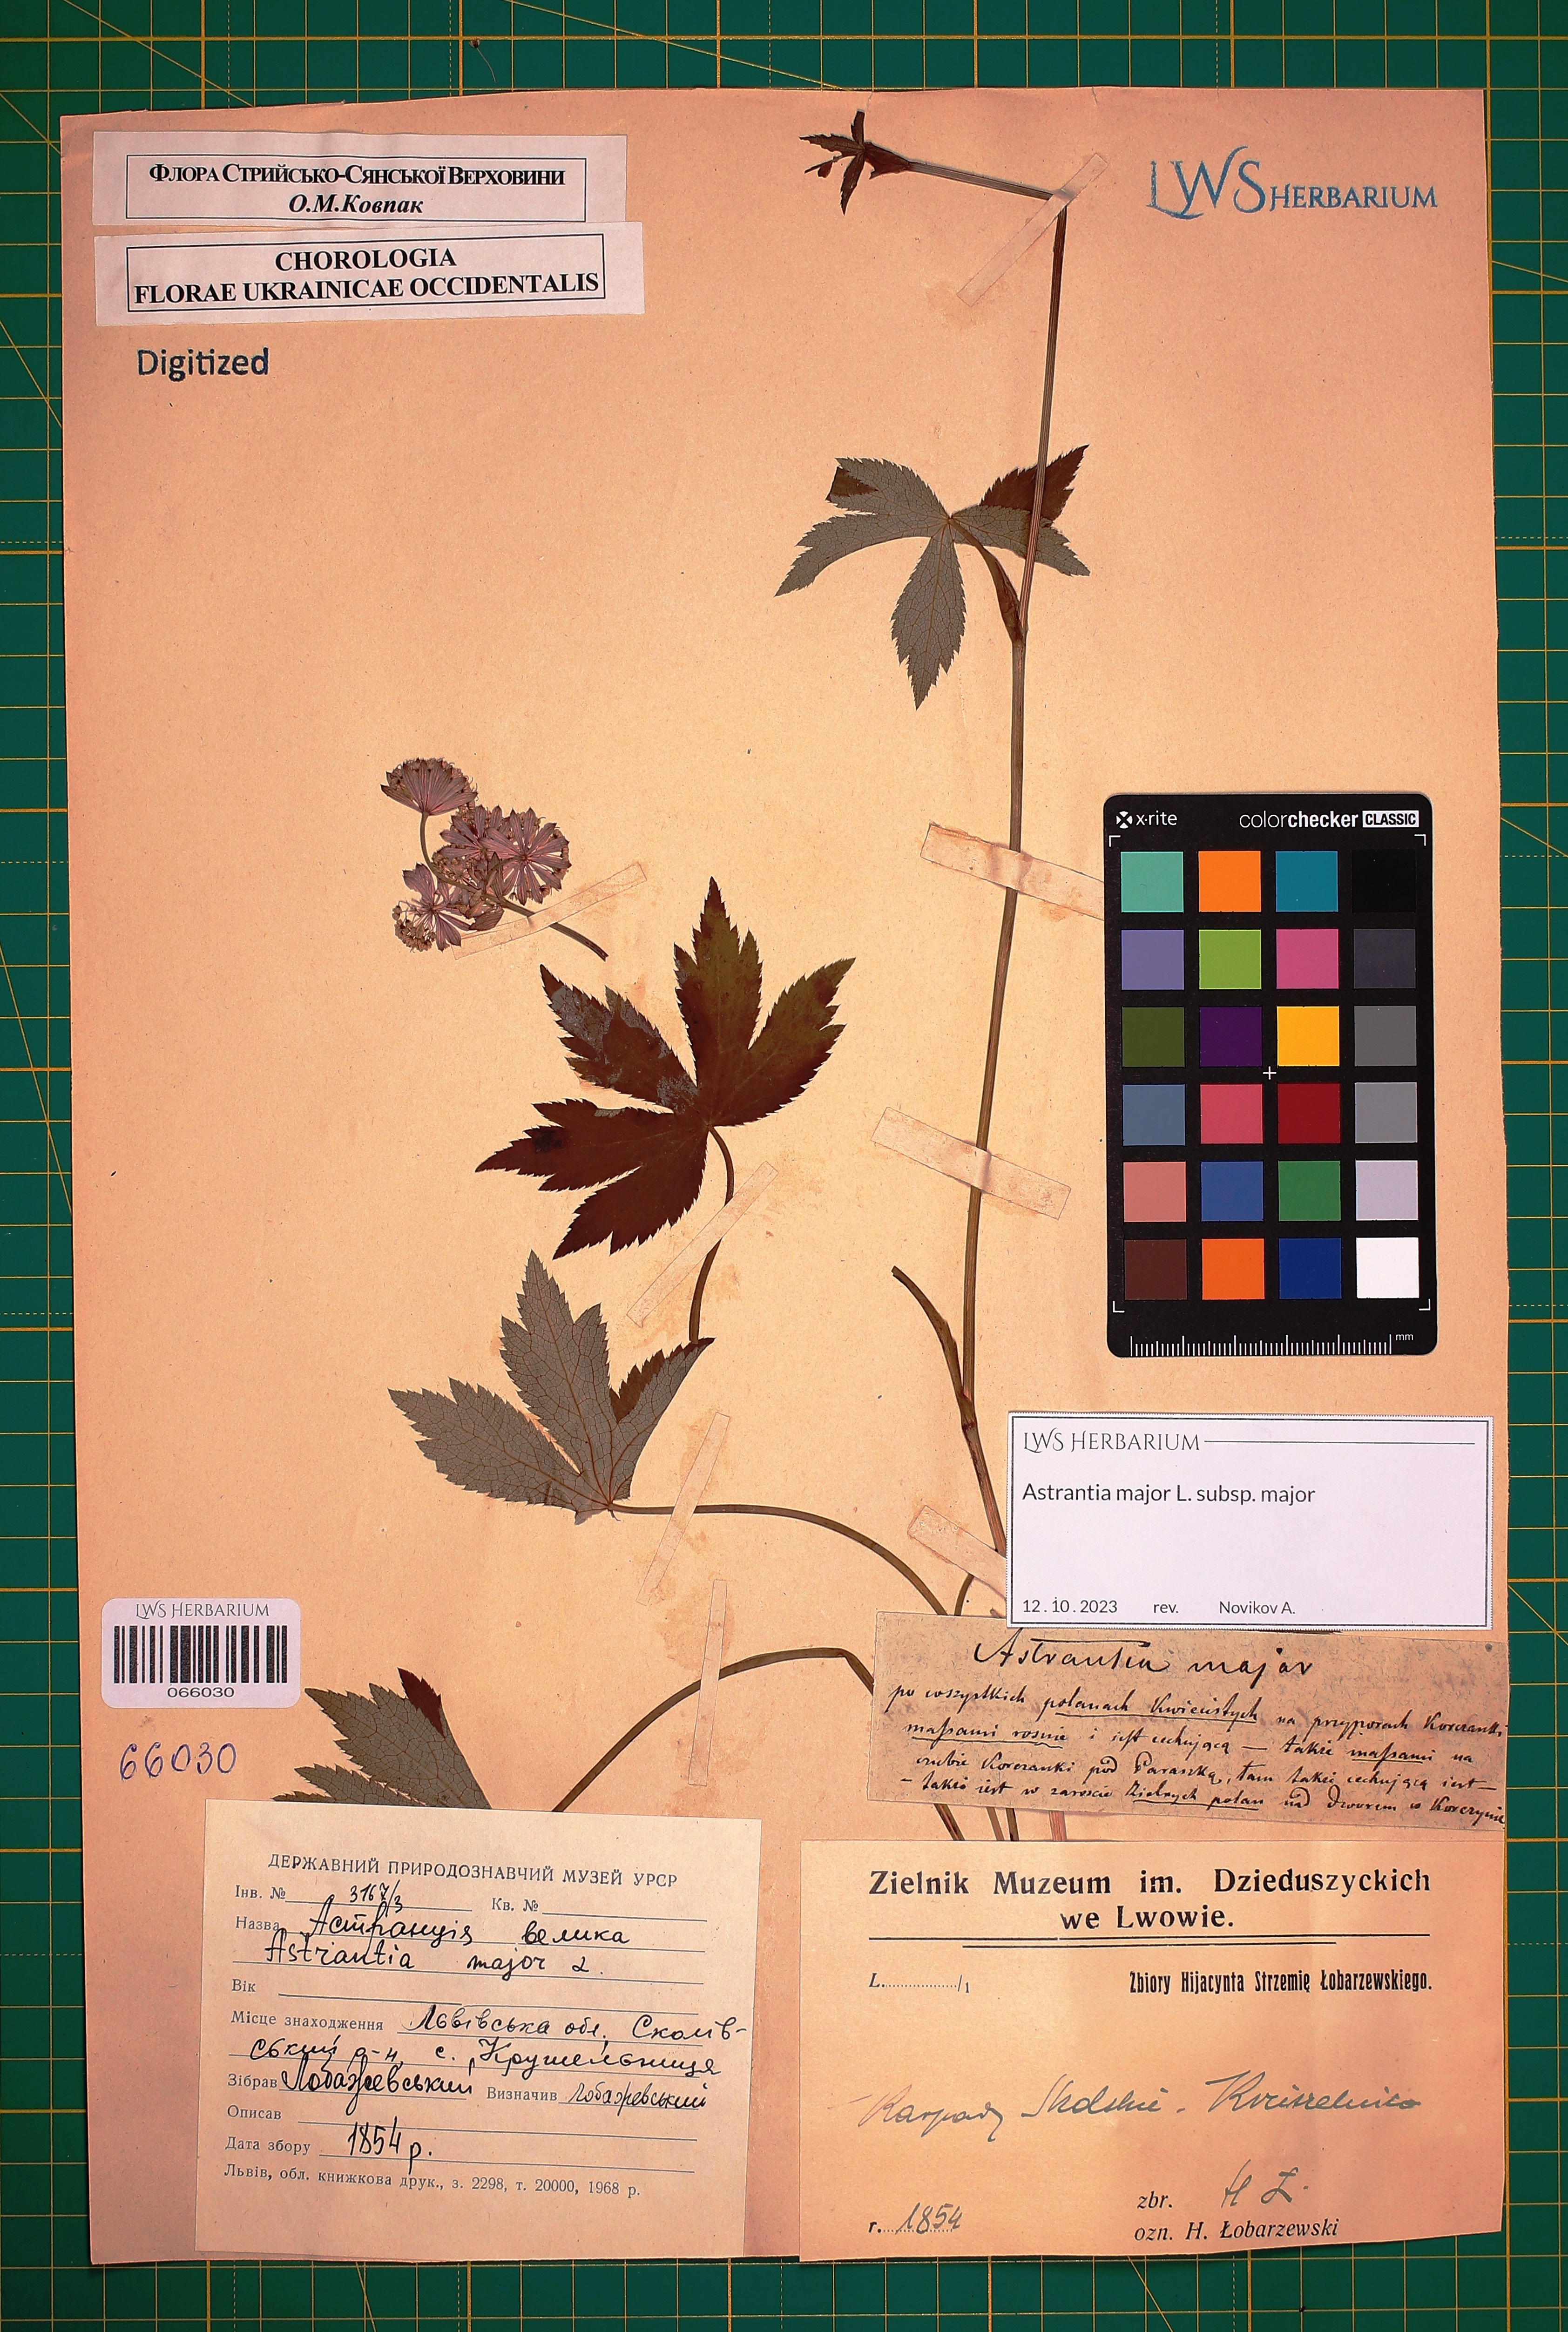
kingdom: Plantae
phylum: Tracheophyta
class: Magnoliopsida
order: Apiales
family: Apiaceae
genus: Astrantia
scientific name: Astrantia major
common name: Greater masterwort
